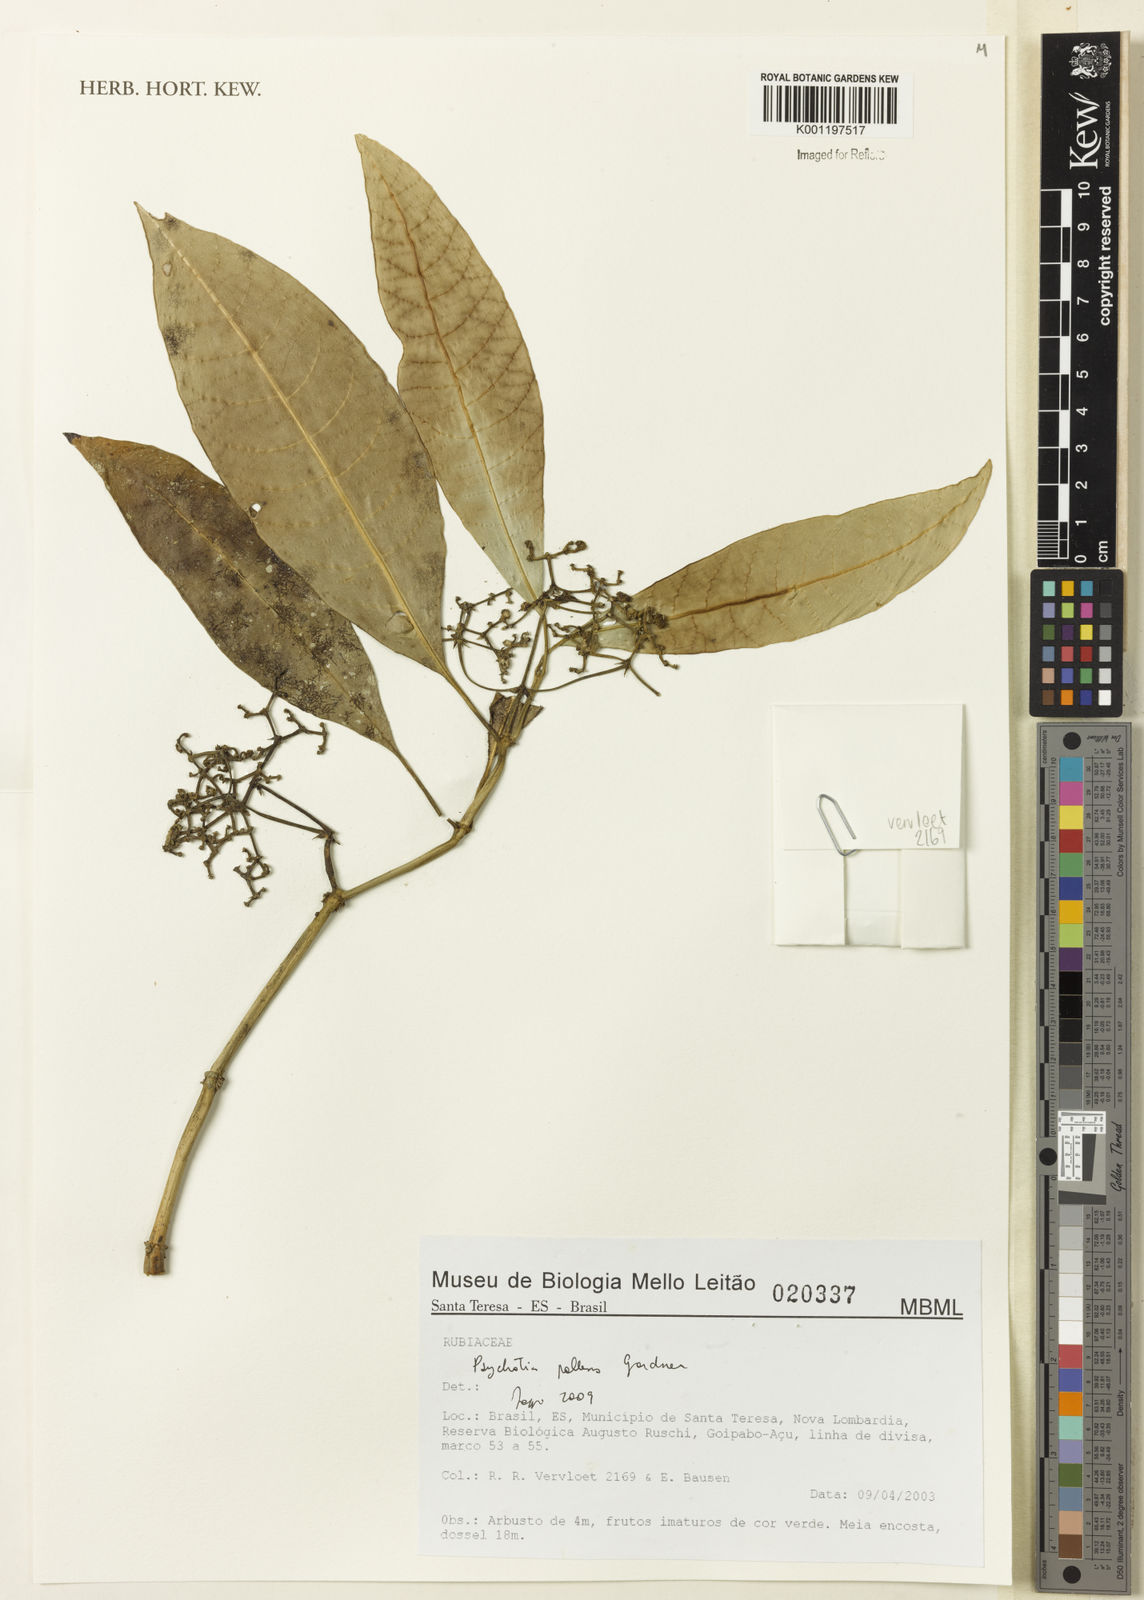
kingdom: Plantae
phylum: Tracheophyta
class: Magnoliopsida
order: Gentianales
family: Rubiaceae
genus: Psychotria
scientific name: Psychotria pallens
